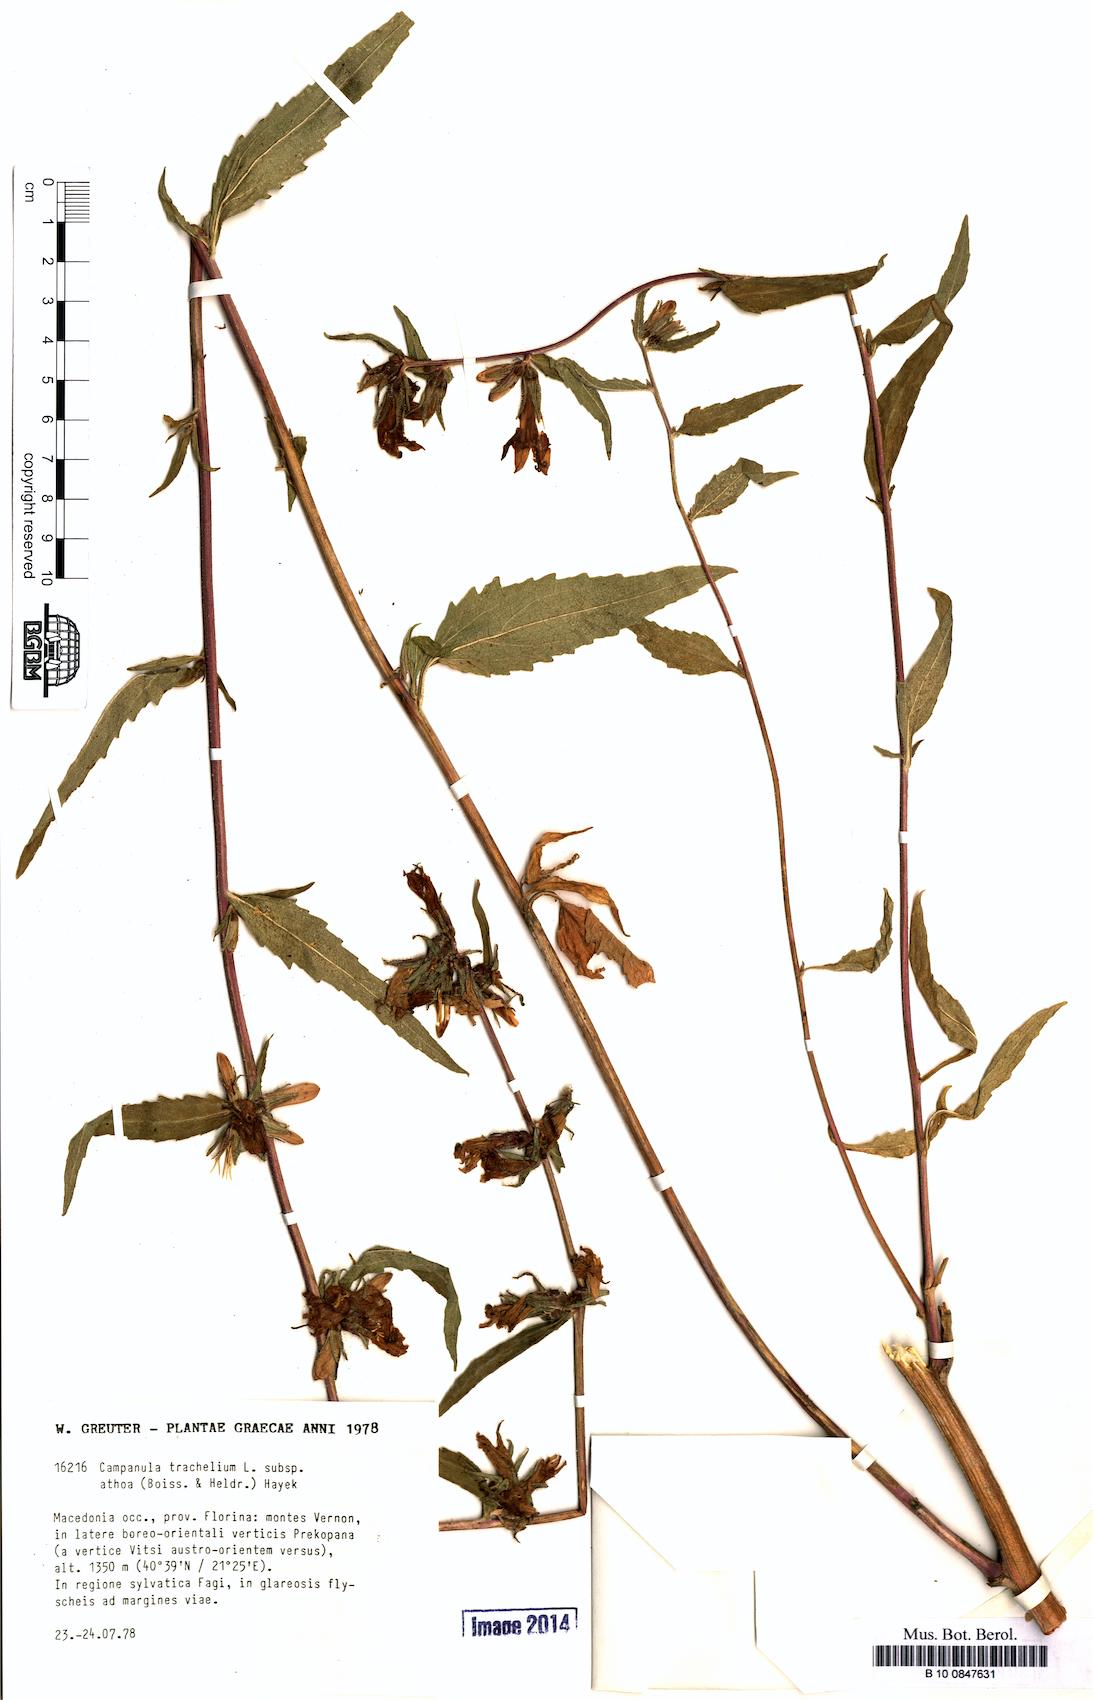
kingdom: Plantae
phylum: Tracheophyta
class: Magnoliopsida
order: Asterales
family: Campanulaceae
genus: Campanula
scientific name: Campanula trachelium
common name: Nettle-leaved bellflower
